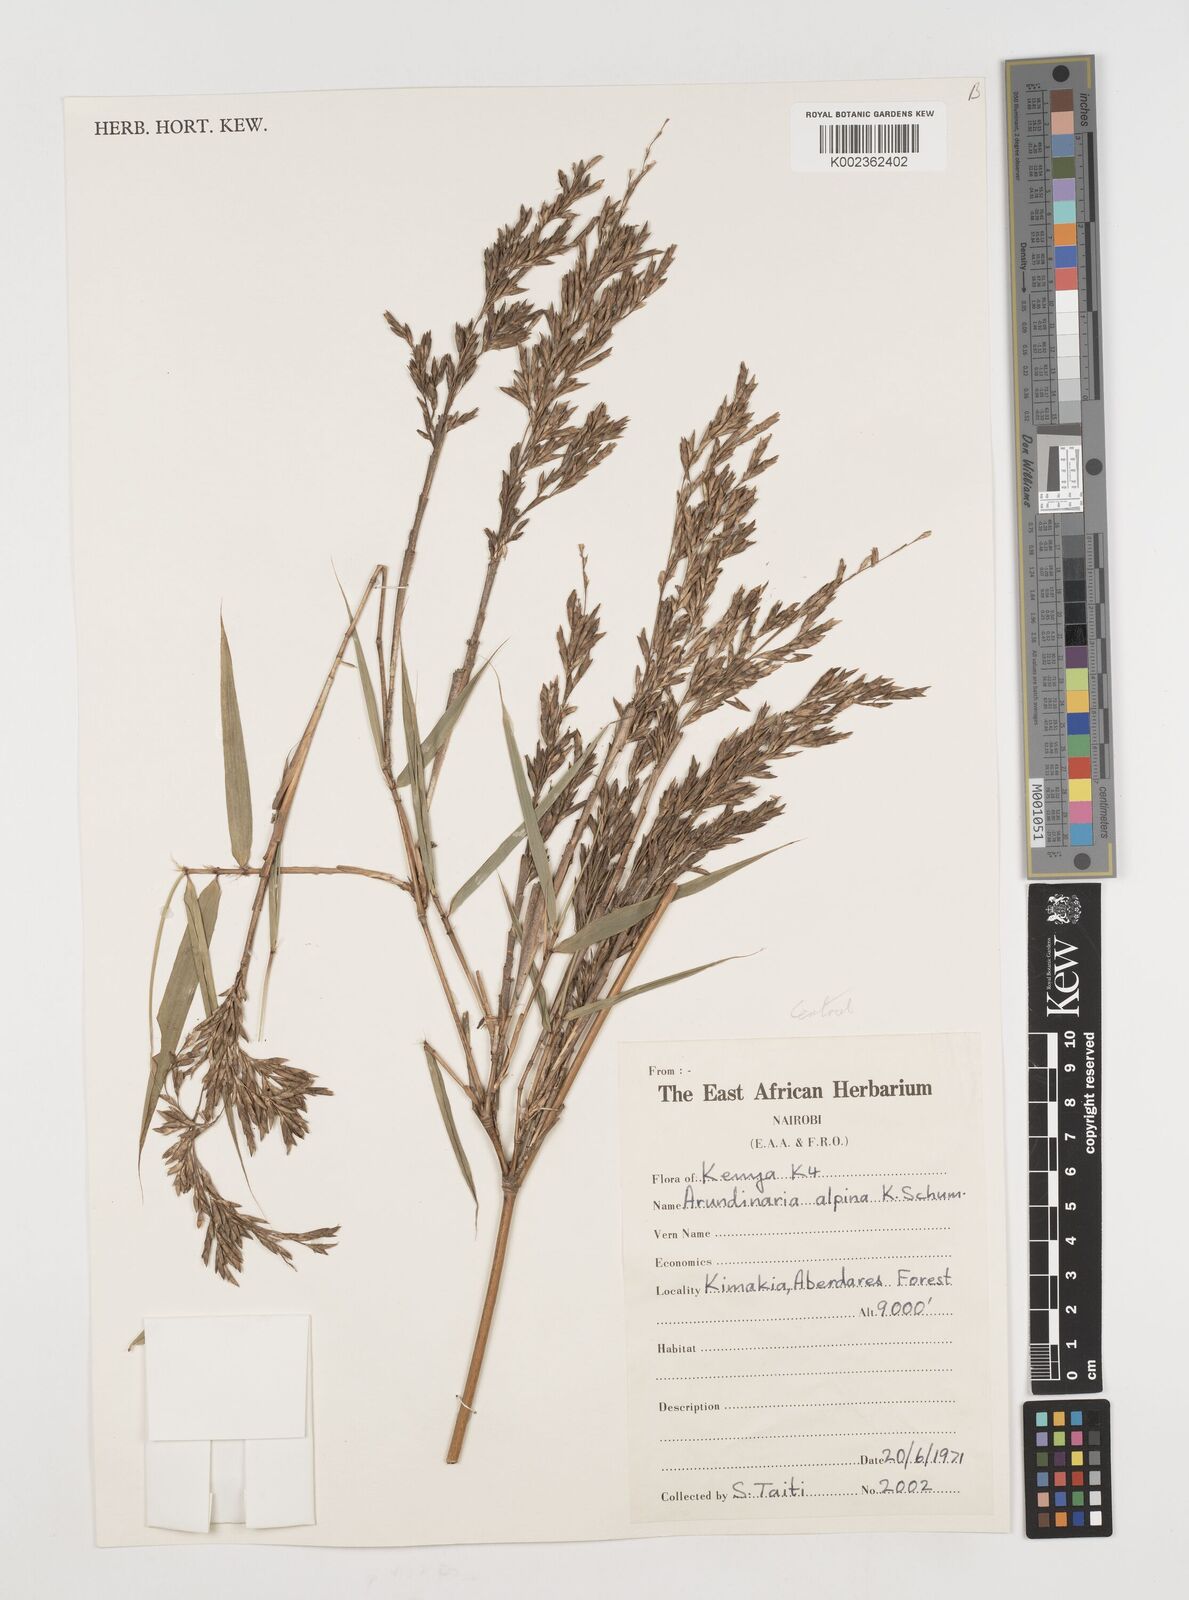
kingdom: Plantae
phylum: Tracheophyta
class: Liliopsida
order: Poales
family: Poaceae
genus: Oldeania
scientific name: Oldeania alpina
